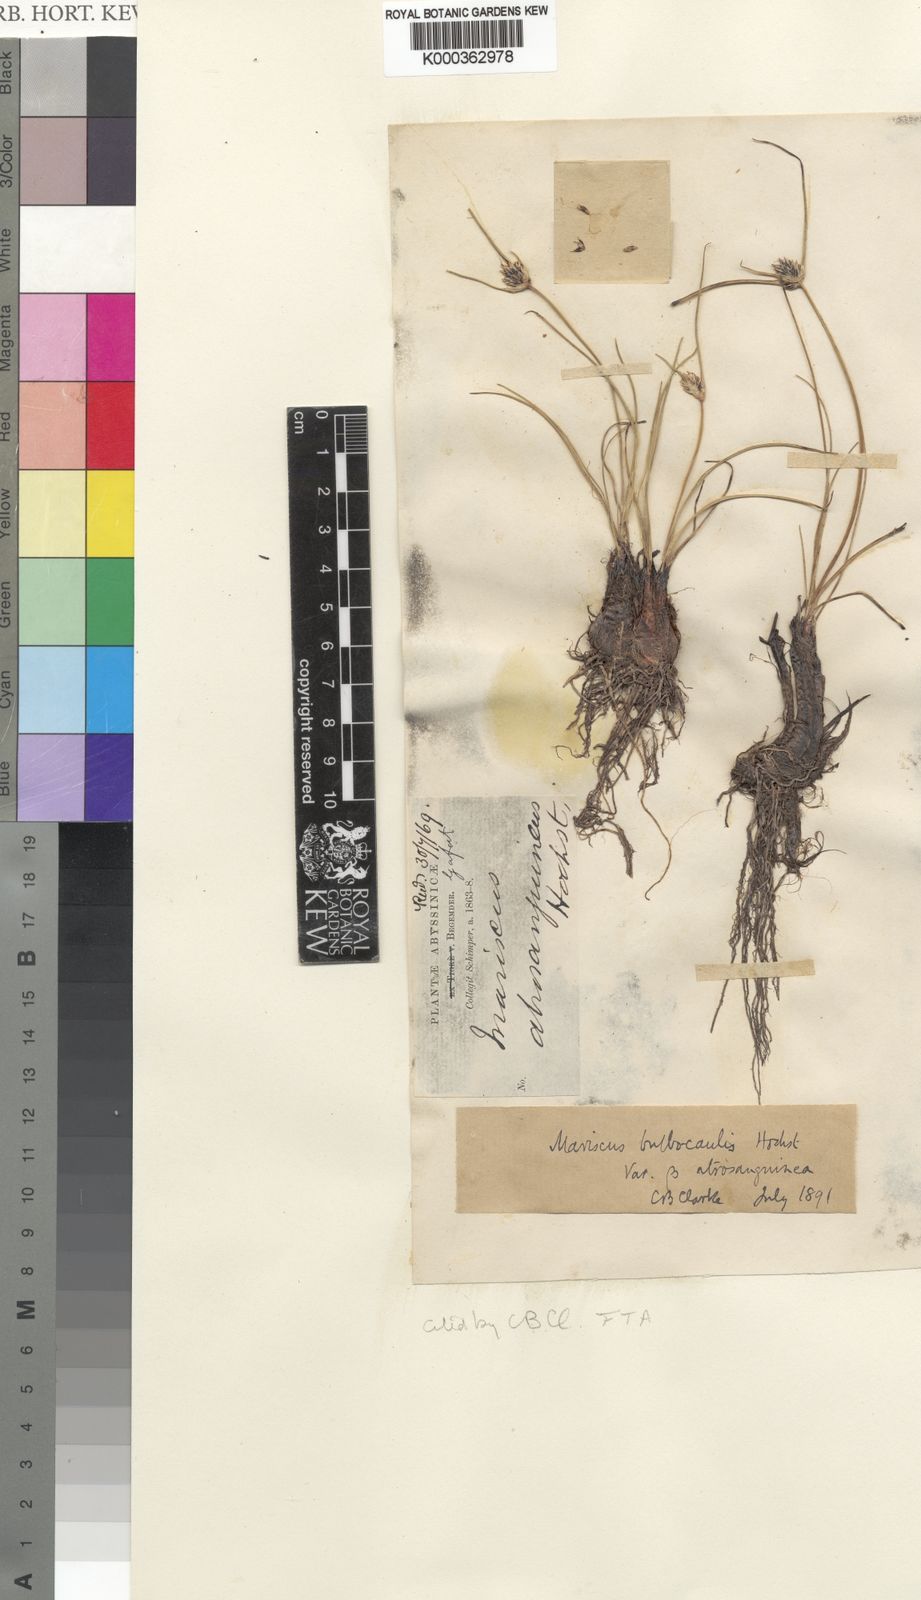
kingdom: Plantae
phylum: Tracheophyta
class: Liliopsida
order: Poales
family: Cyperaceae
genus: Cyperus
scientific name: Cyperus
